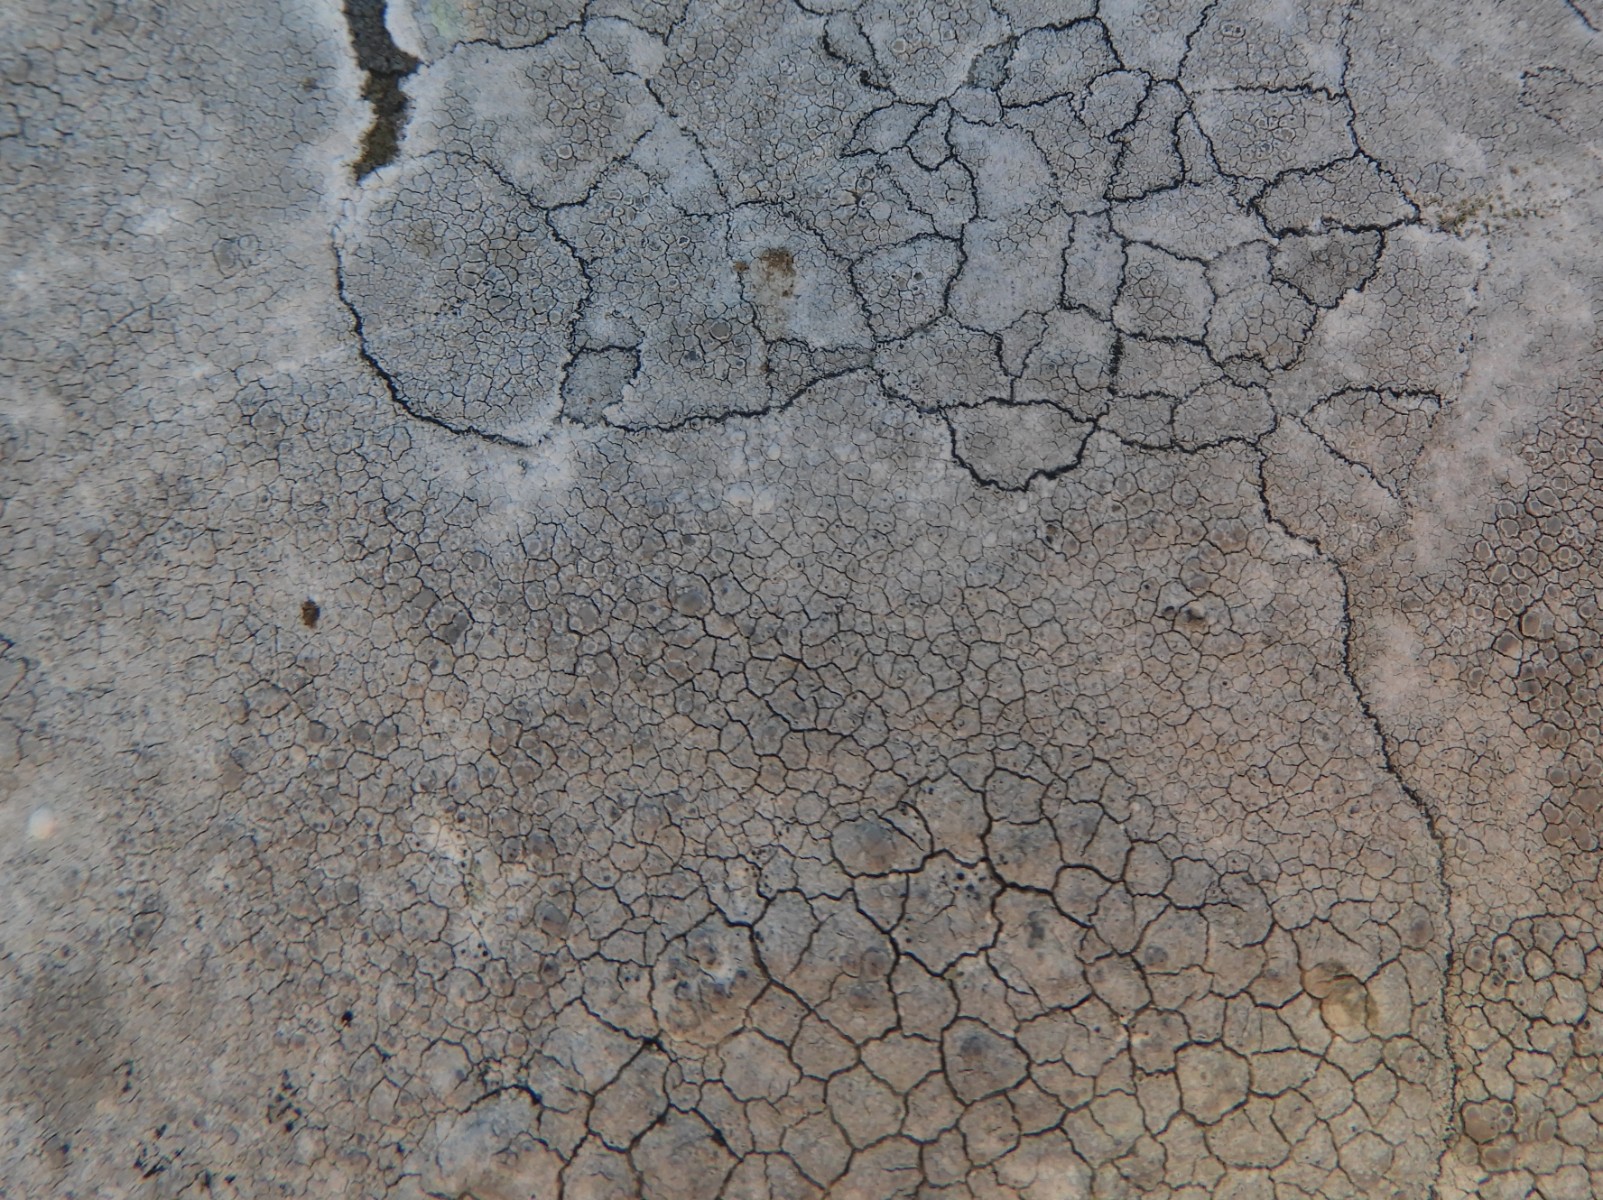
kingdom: Fungi
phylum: Ascomycota
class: Lecanoromycetes
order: Lecanorales
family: Lecanoraceae
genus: Glaucomaria
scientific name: Glaucomaria rupicola
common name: stengærde-kantskivelav
